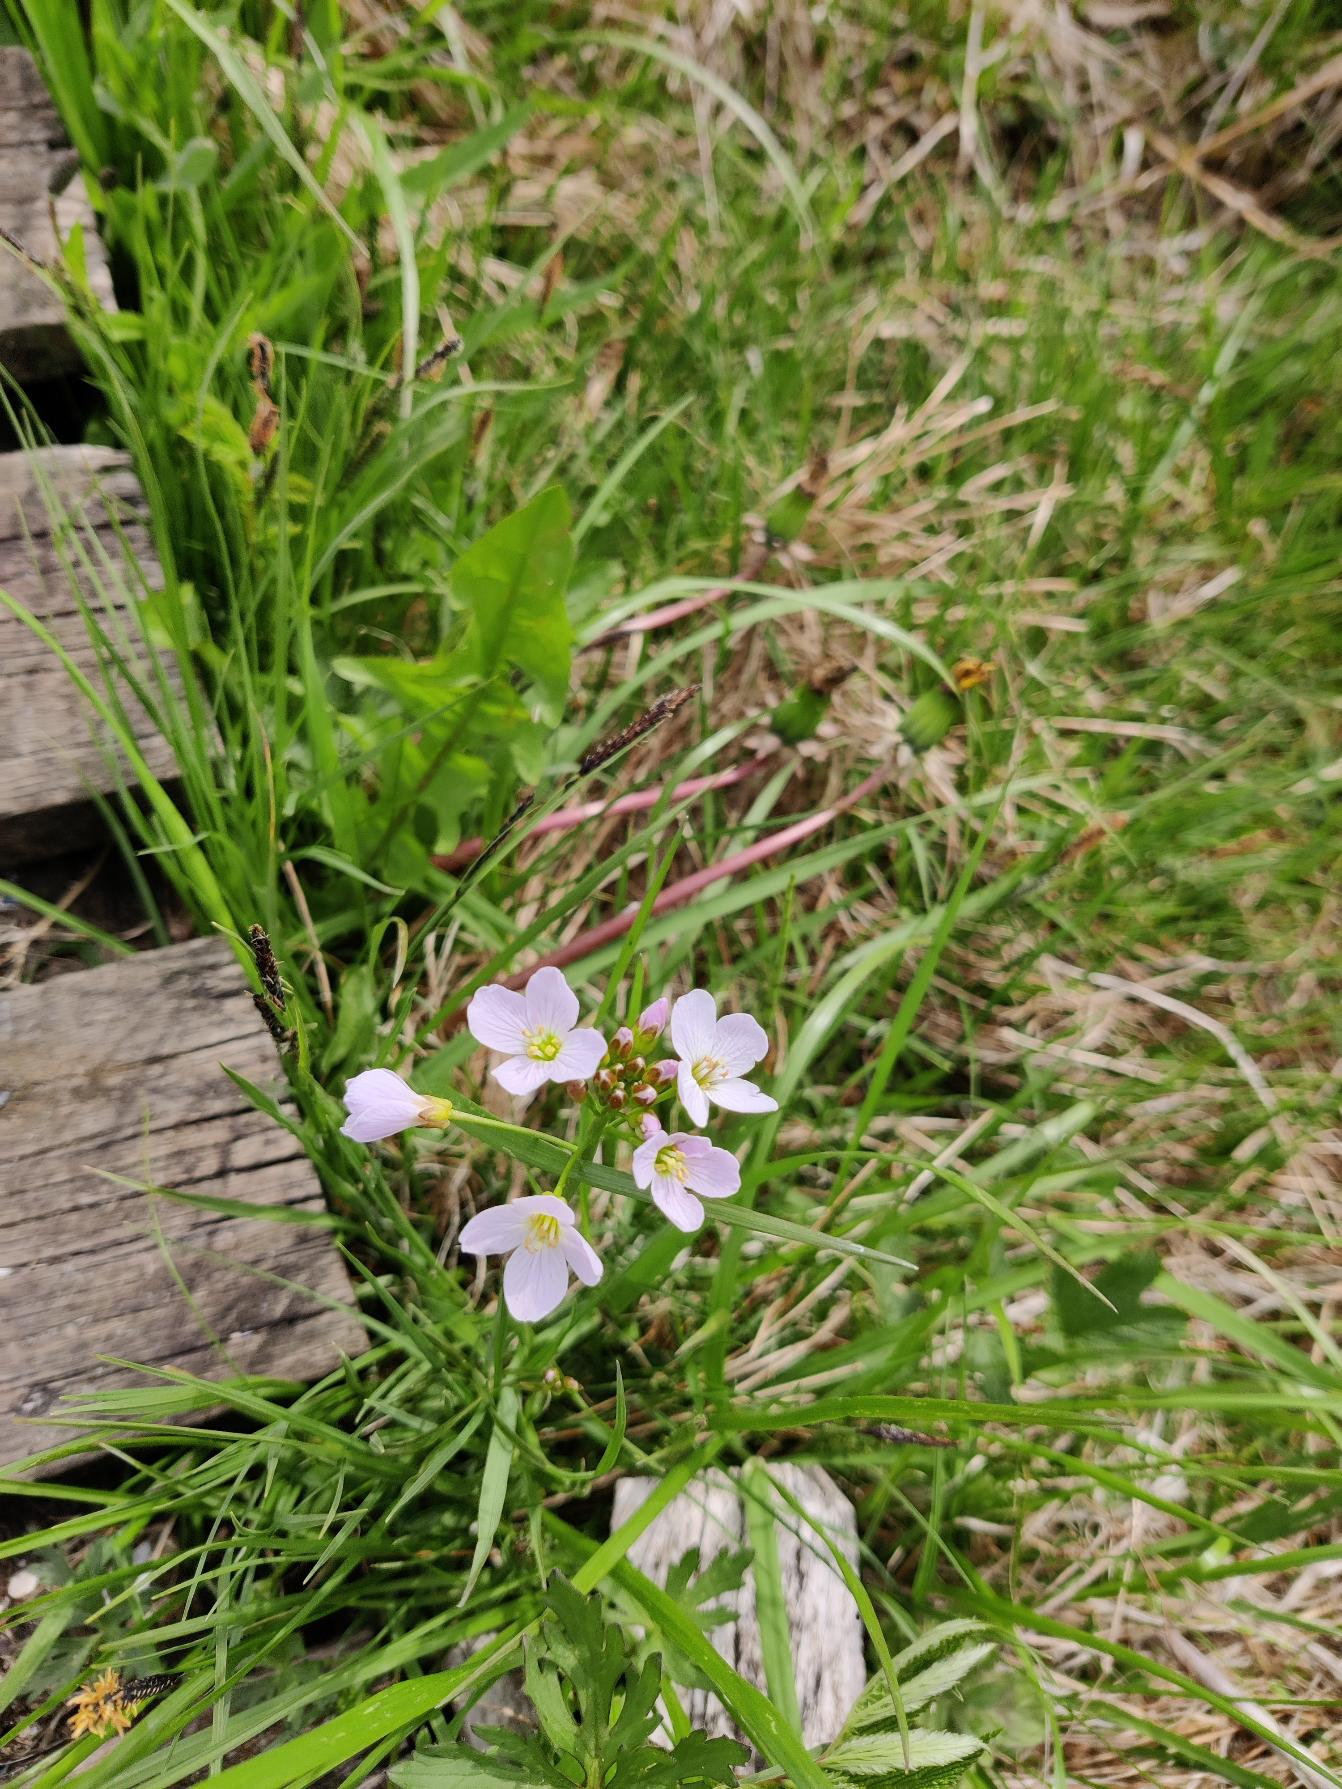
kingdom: Plantae
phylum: Tracheophyta
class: Magnoliopsida
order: Brassicales
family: Brassicaceae
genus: Cardamine
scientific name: Cardamine pratensis
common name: Engkarse
